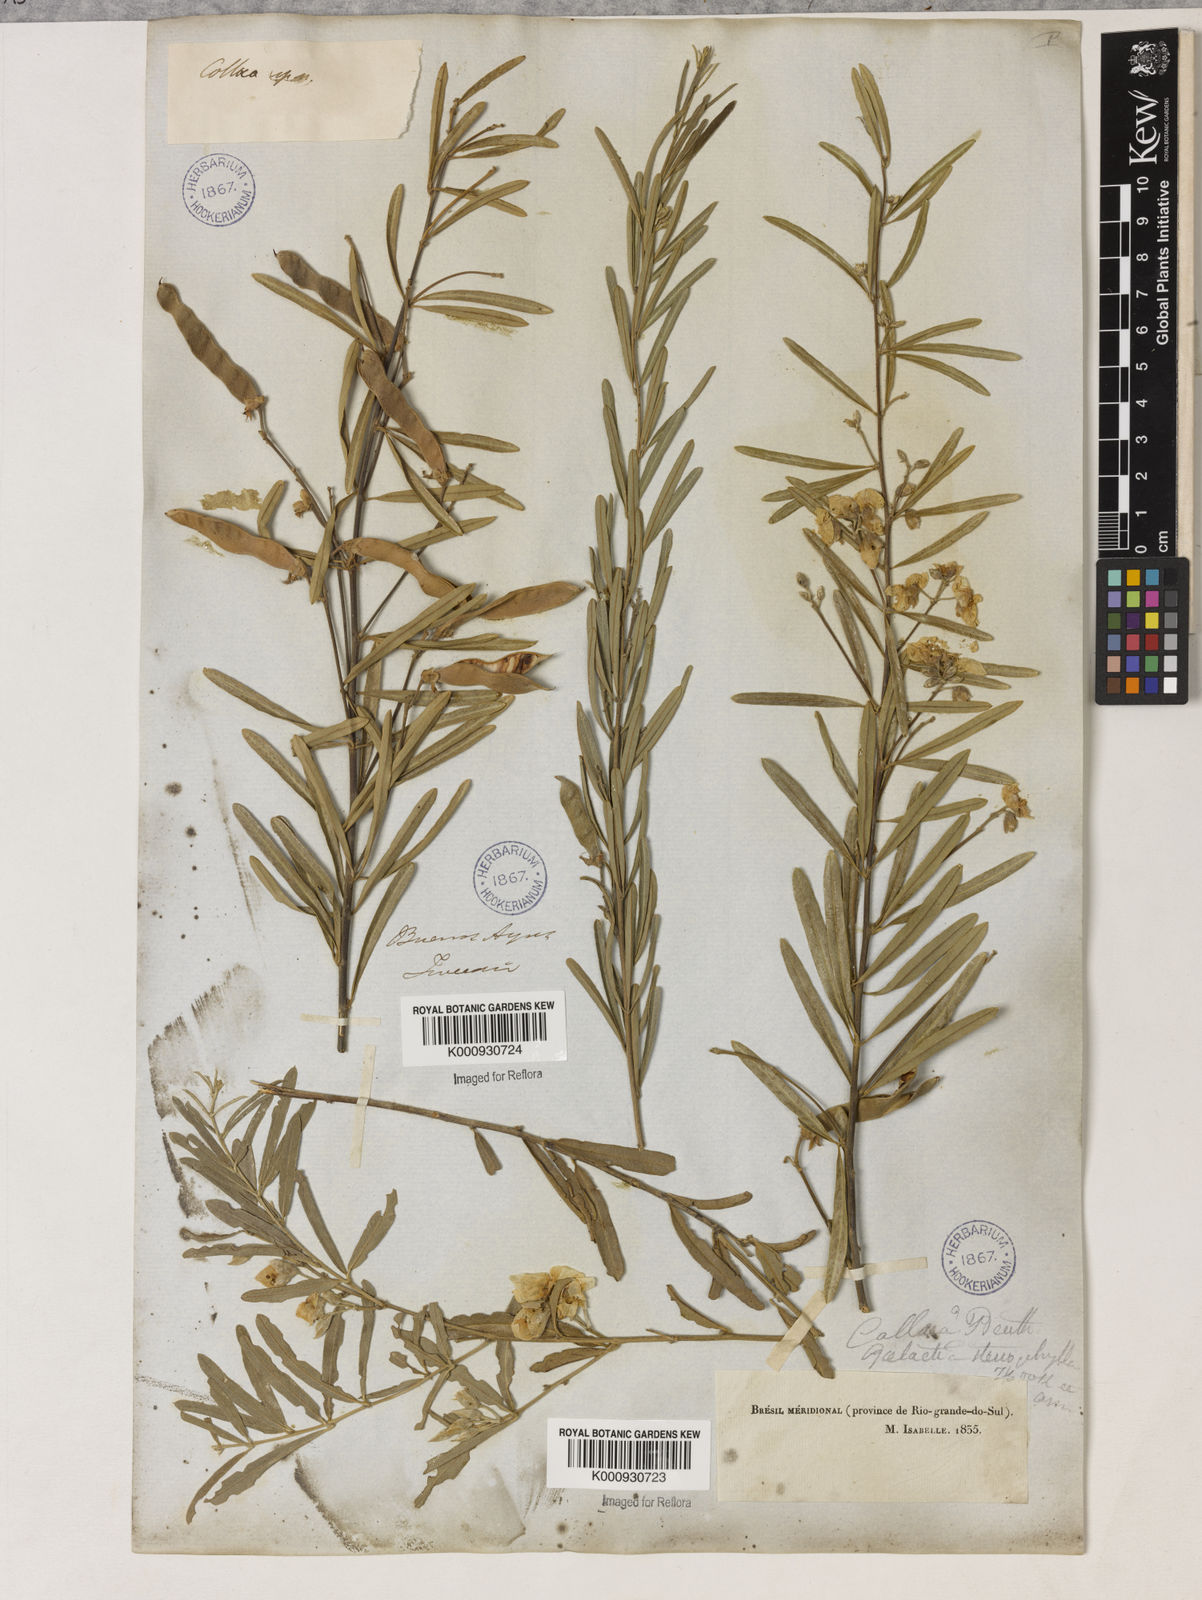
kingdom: Plantae
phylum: Tracheophyta
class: Liliopsida
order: Asparagales
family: Orchidaceae
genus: Pelexia
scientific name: Pelexia
